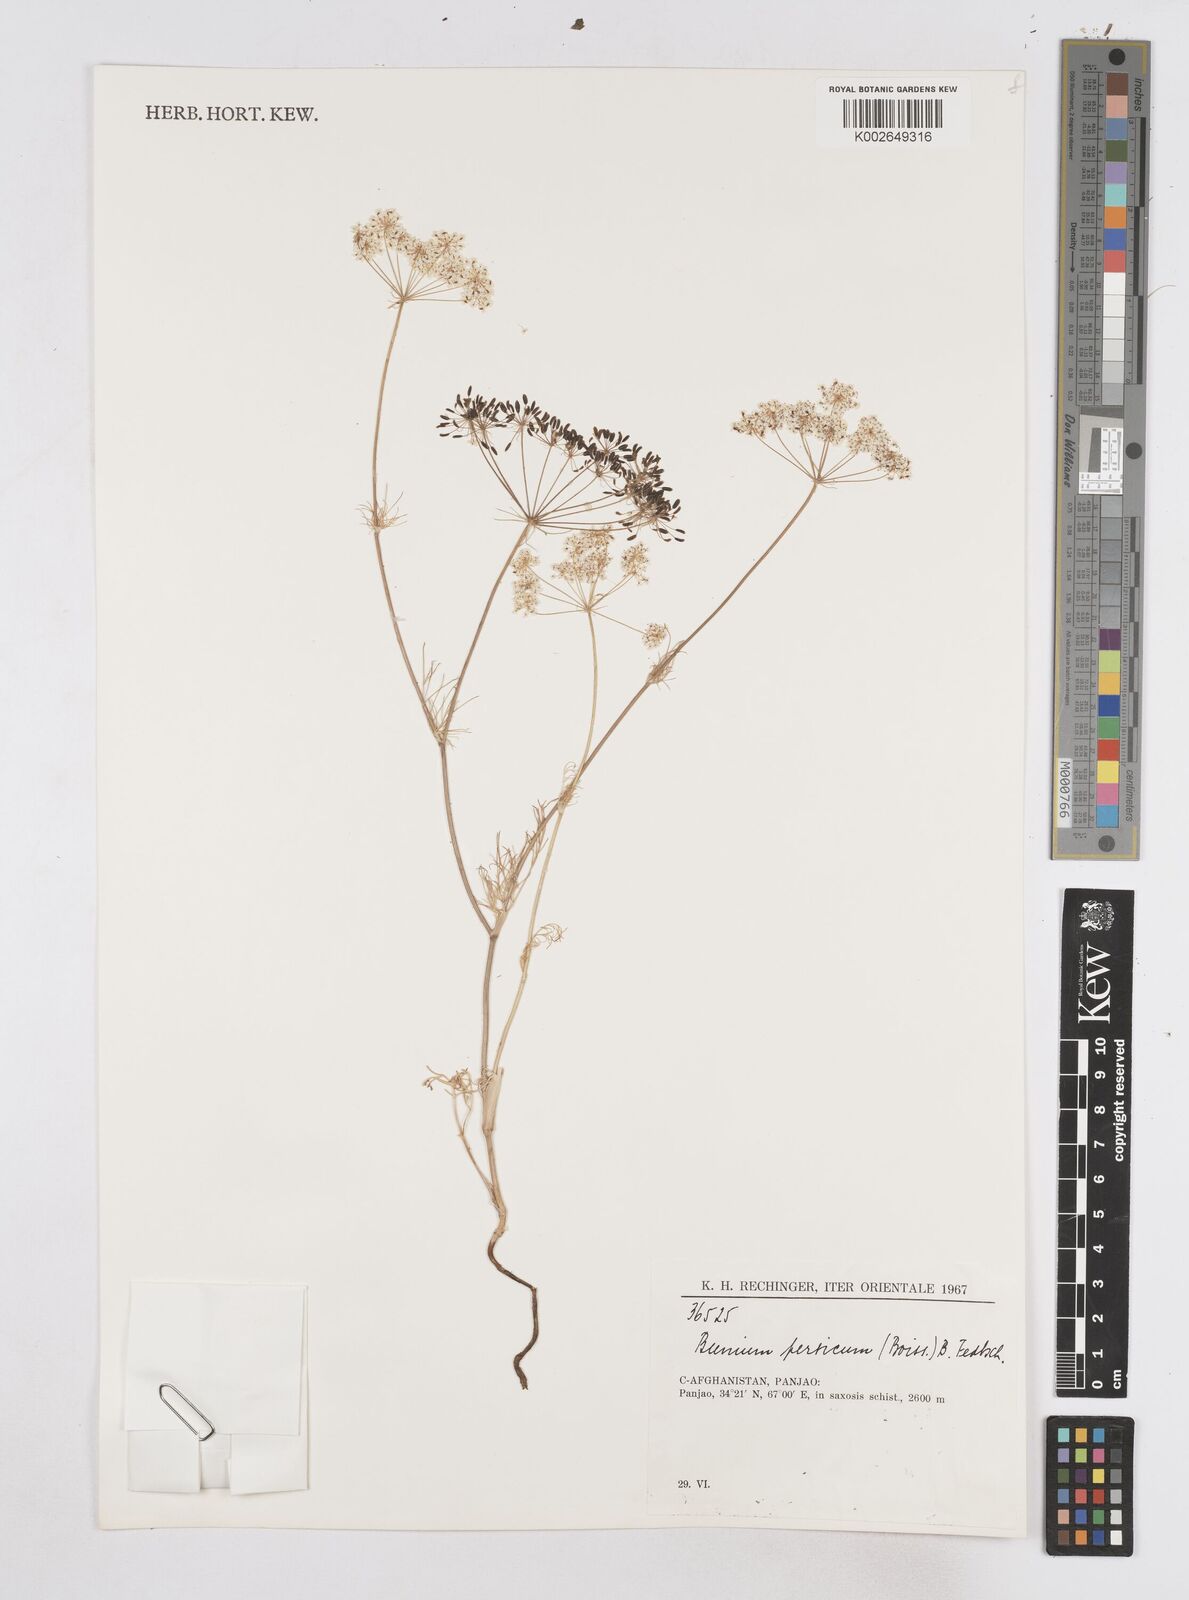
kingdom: Plantae
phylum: Tracheophyta
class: Magnoliopsida
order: Apiales
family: Apiaceae
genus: Elwendia
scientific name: Elwendia persica
